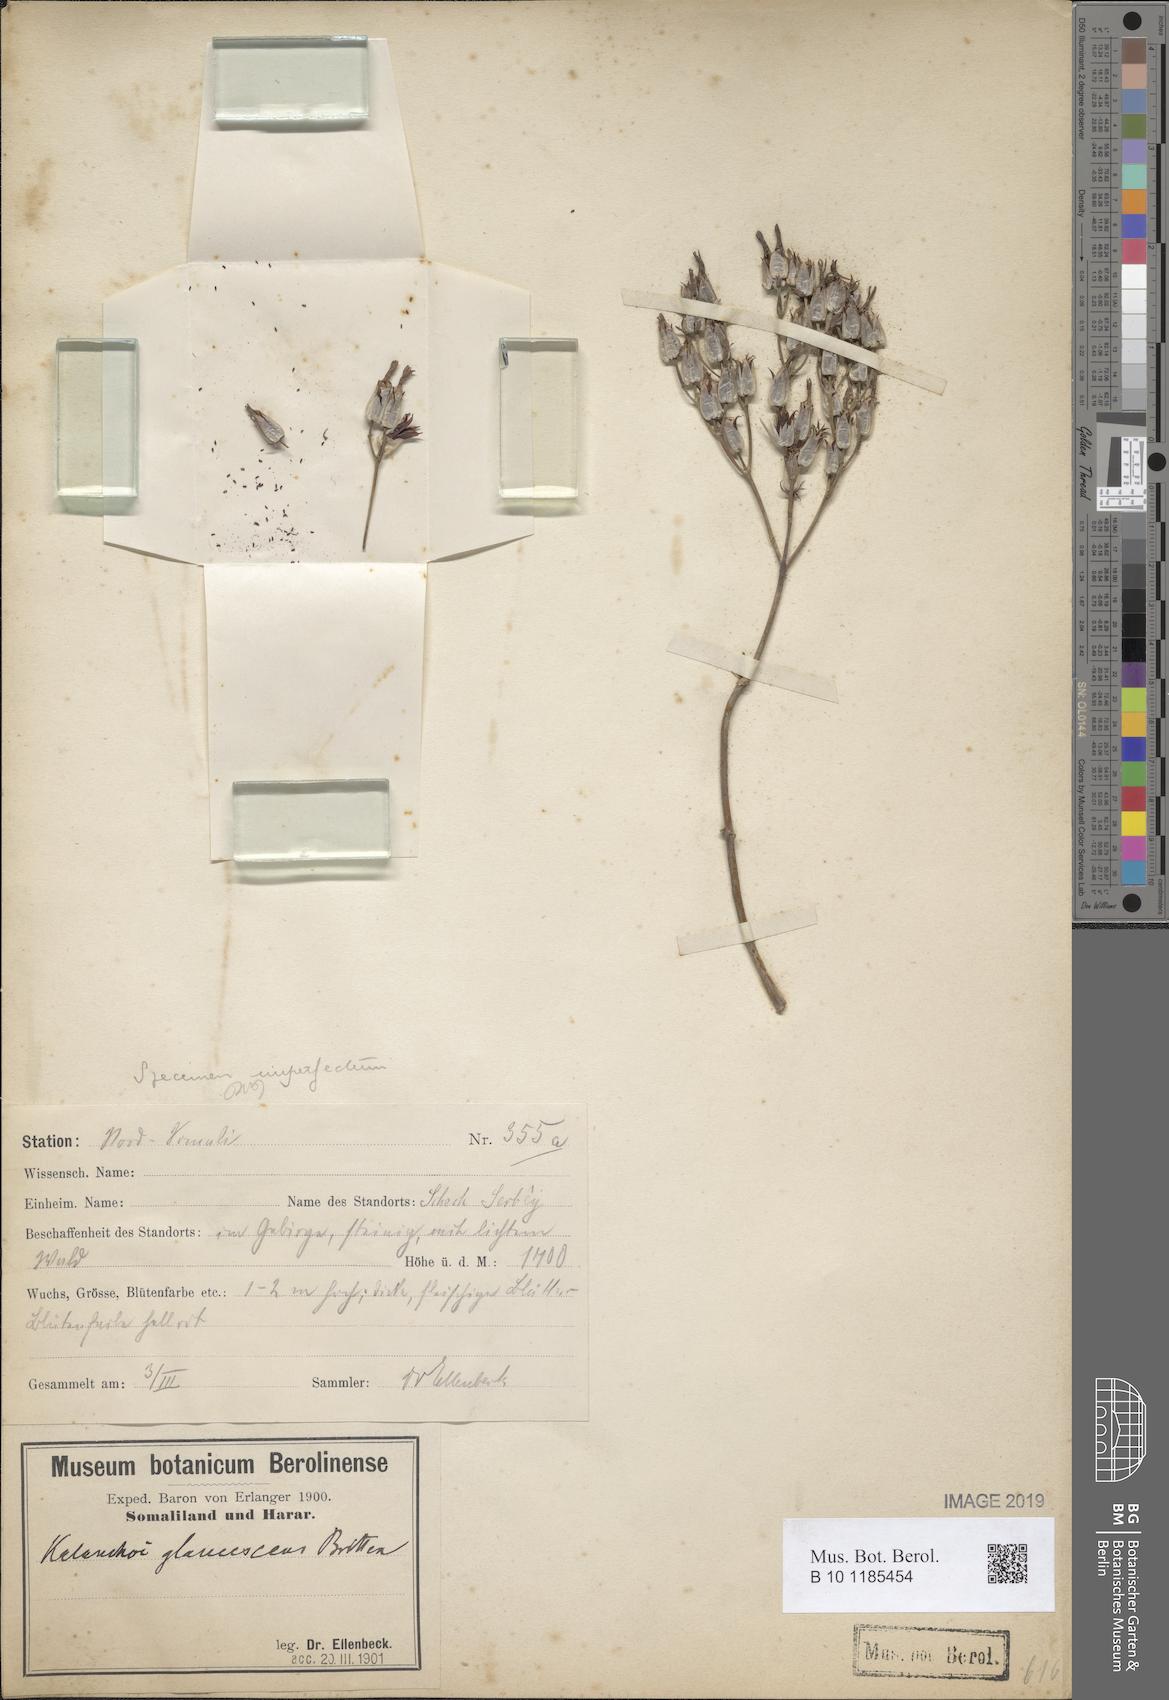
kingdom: Plantae
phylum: Tracheophyta
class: Magnoliopsida
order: Saxifragales
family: Crassulaceae
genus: Kalanchoe
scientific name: Kalanchoe glaucescens
